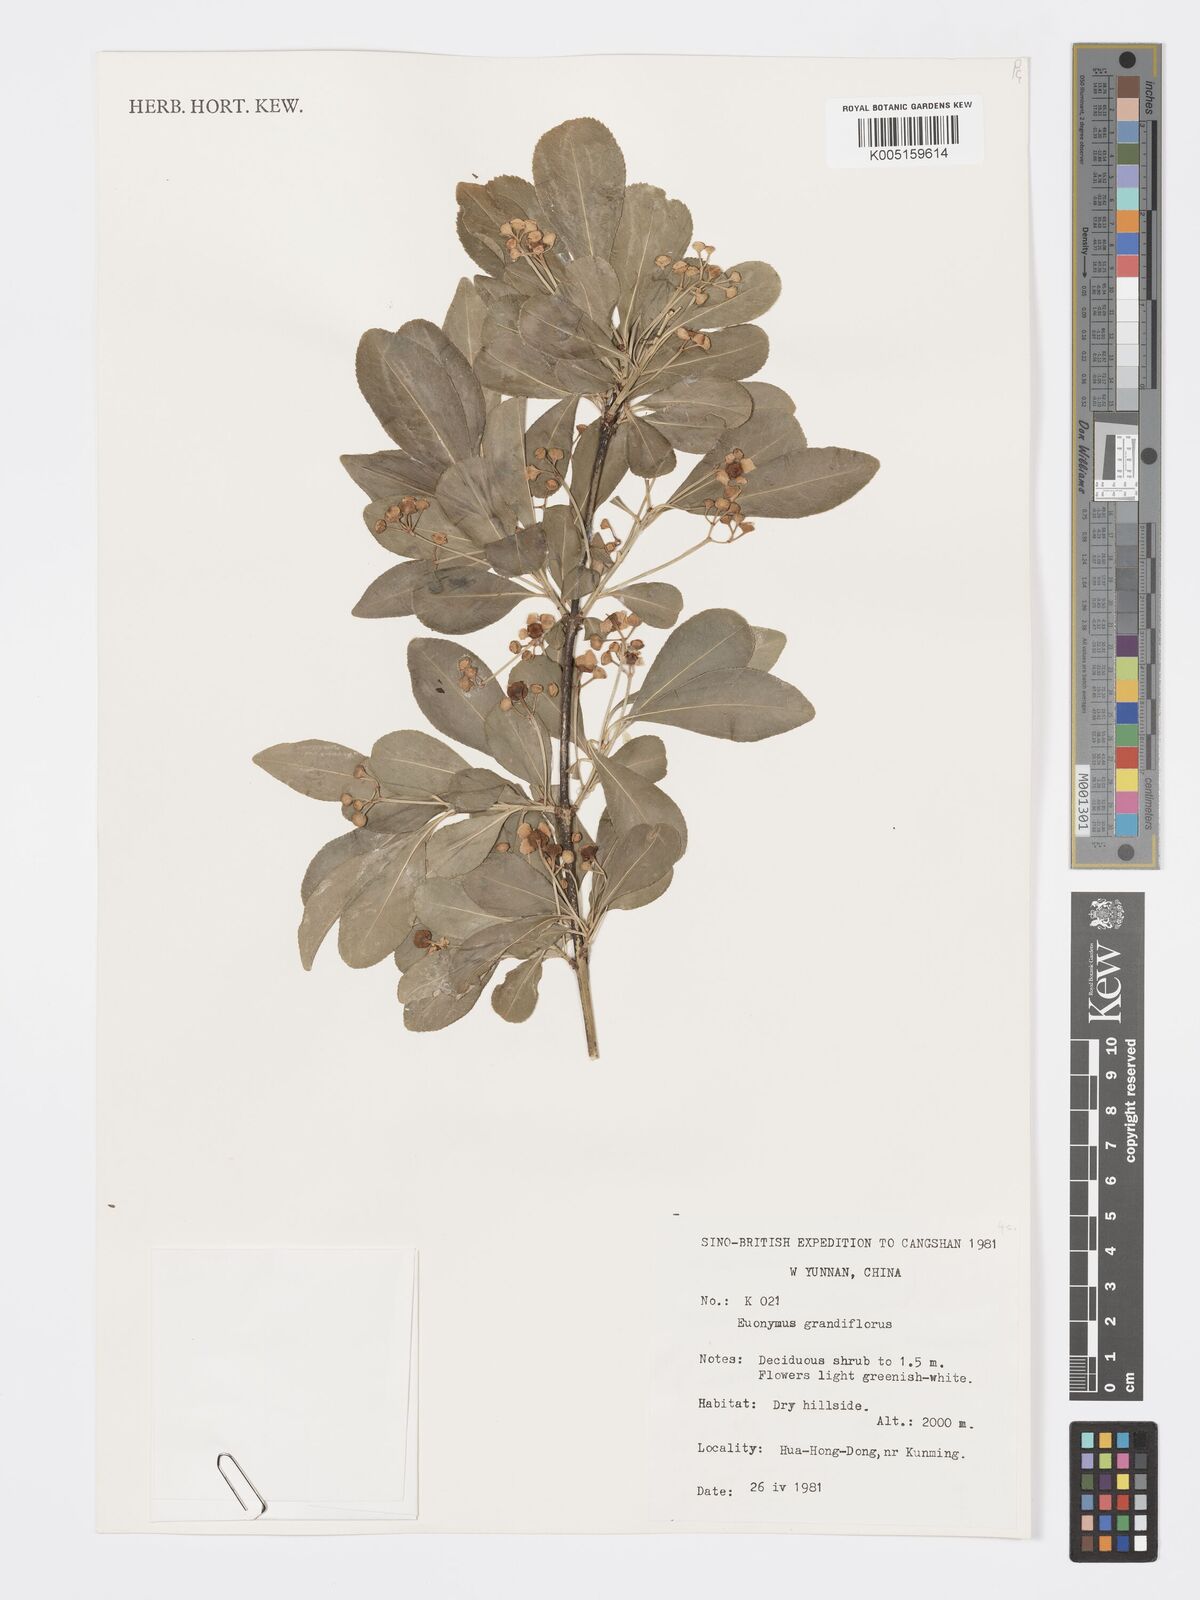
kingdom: Plantae
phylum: Tracheophyta
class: Magnoliopsida
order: Celastrales
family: Celastraceae
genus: Euonymus
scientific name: Euonymus grandiflorus
